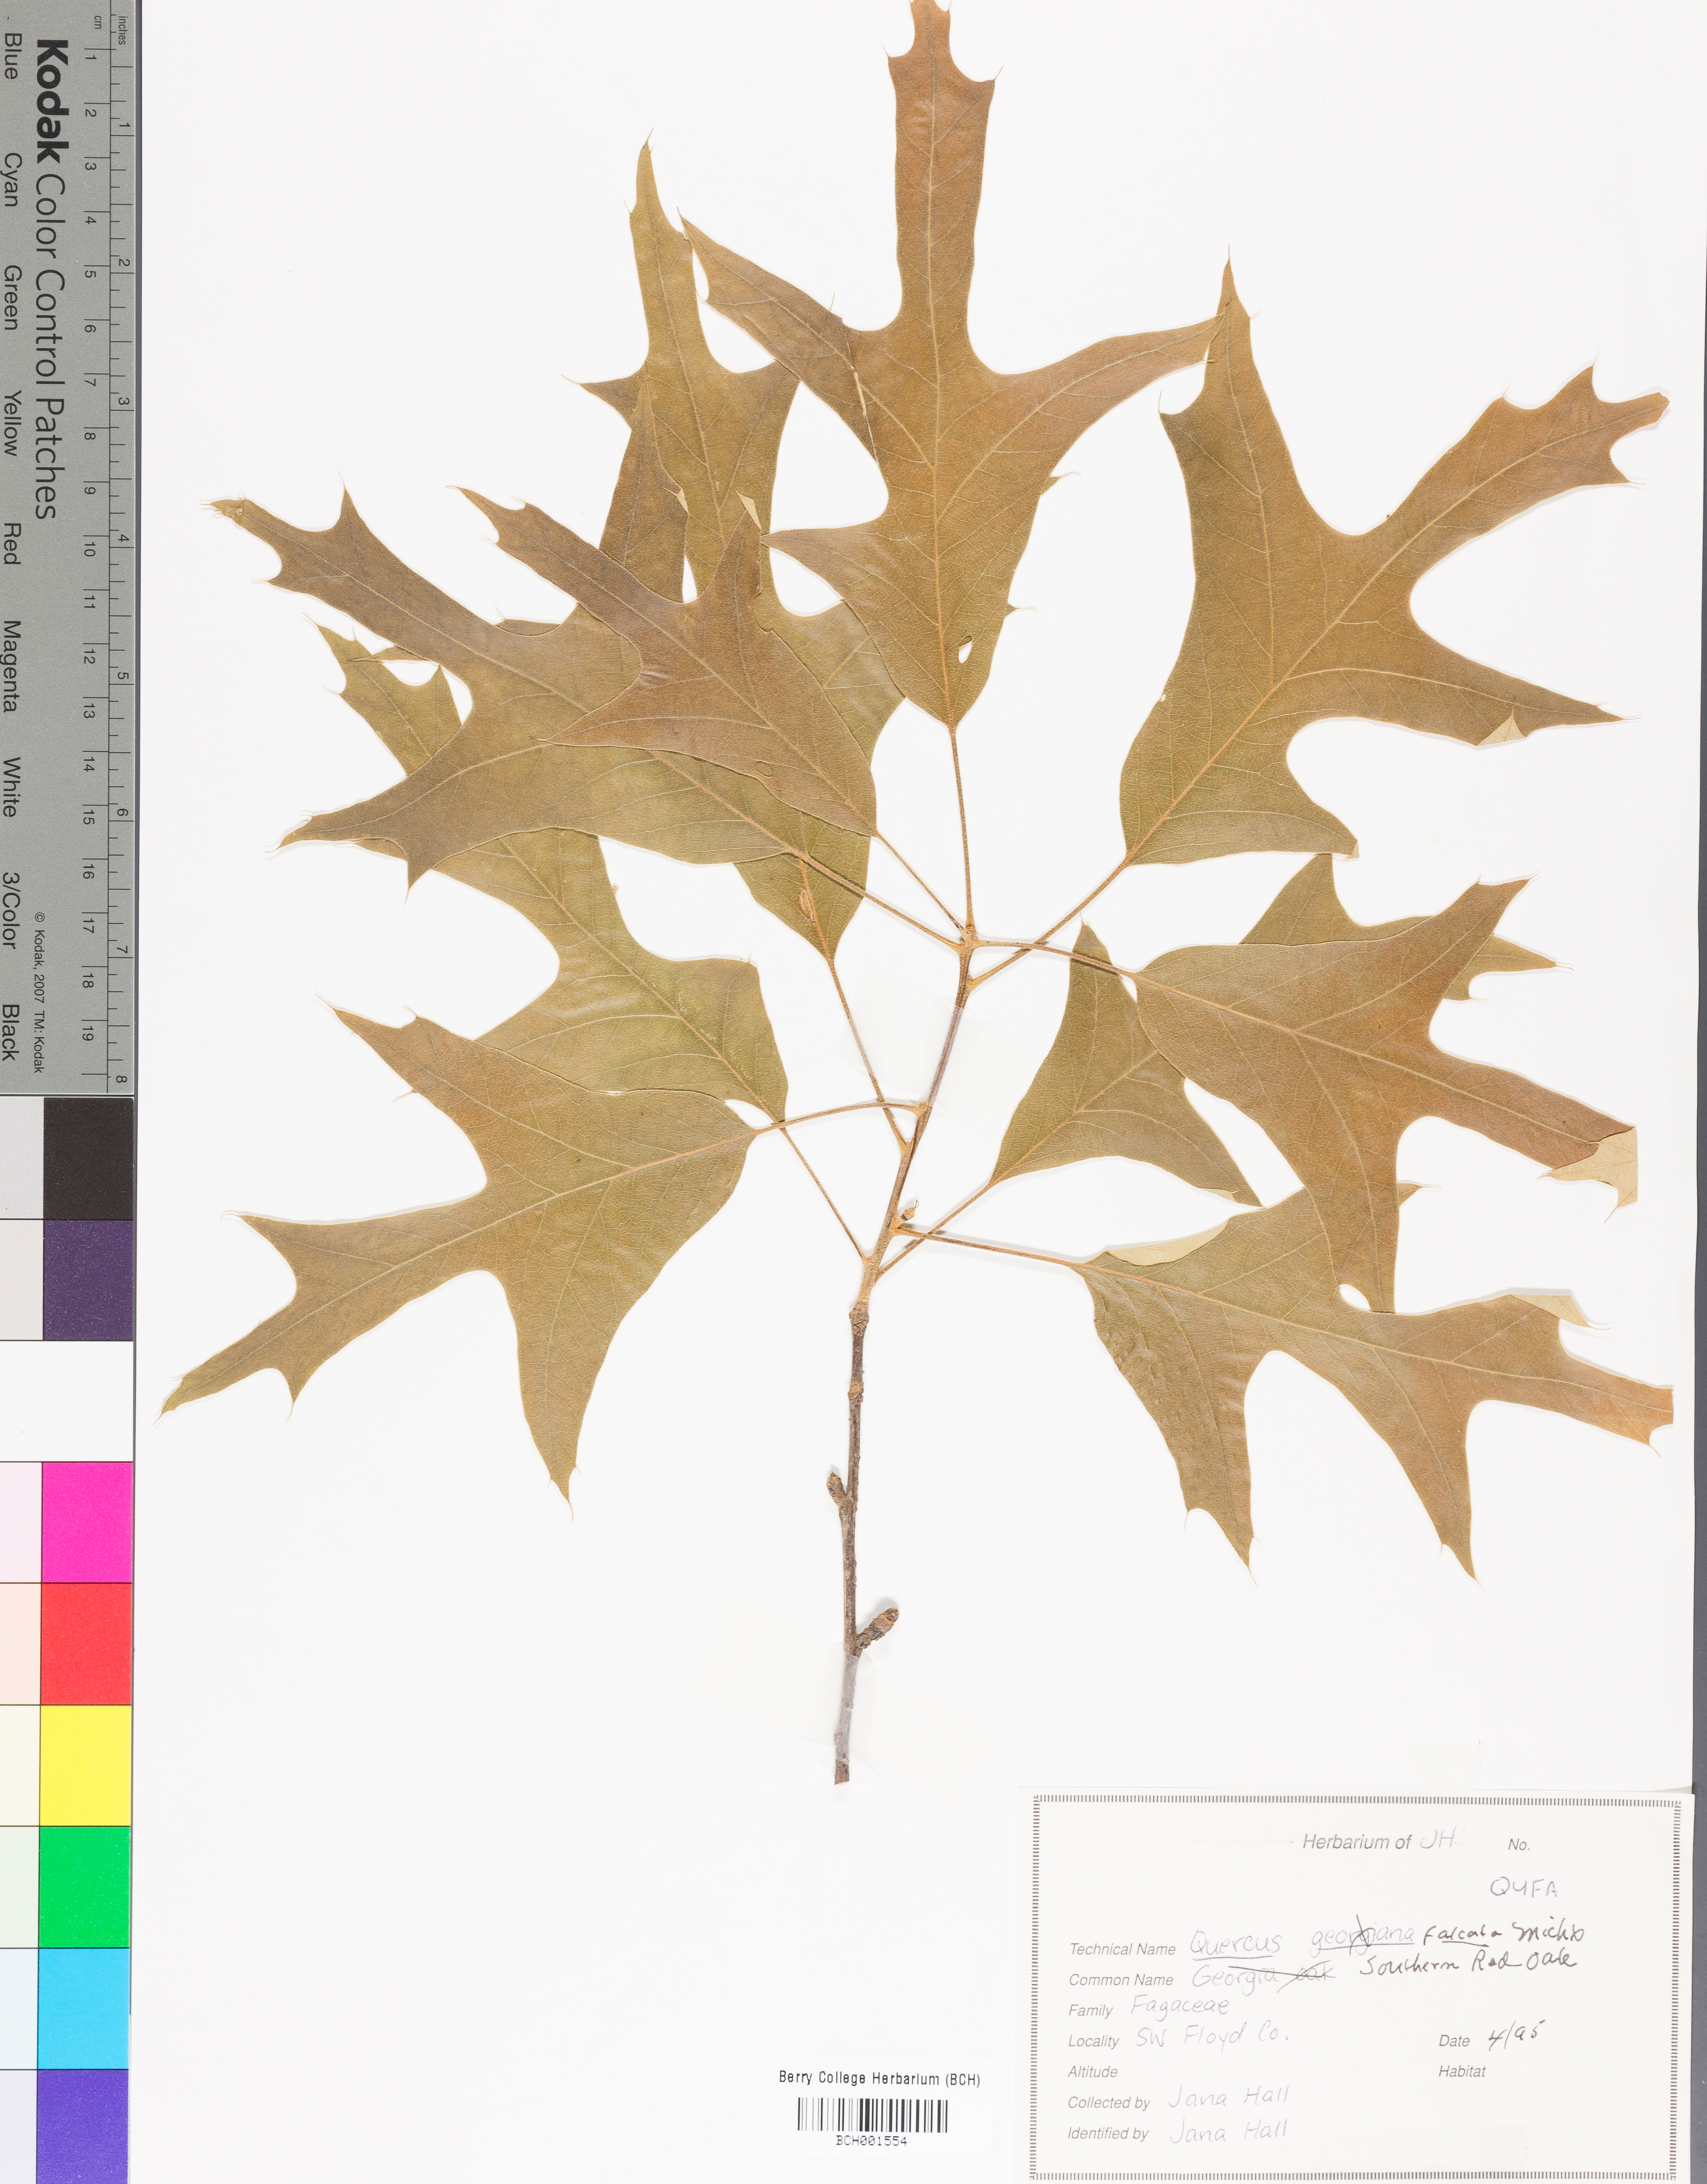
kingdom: Plantae
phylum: Tracheophyta
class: Magnoliopsida
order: Fagales
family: Fagaceae
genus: Quercus
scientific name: Quercus falcata
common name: Southern red oak
